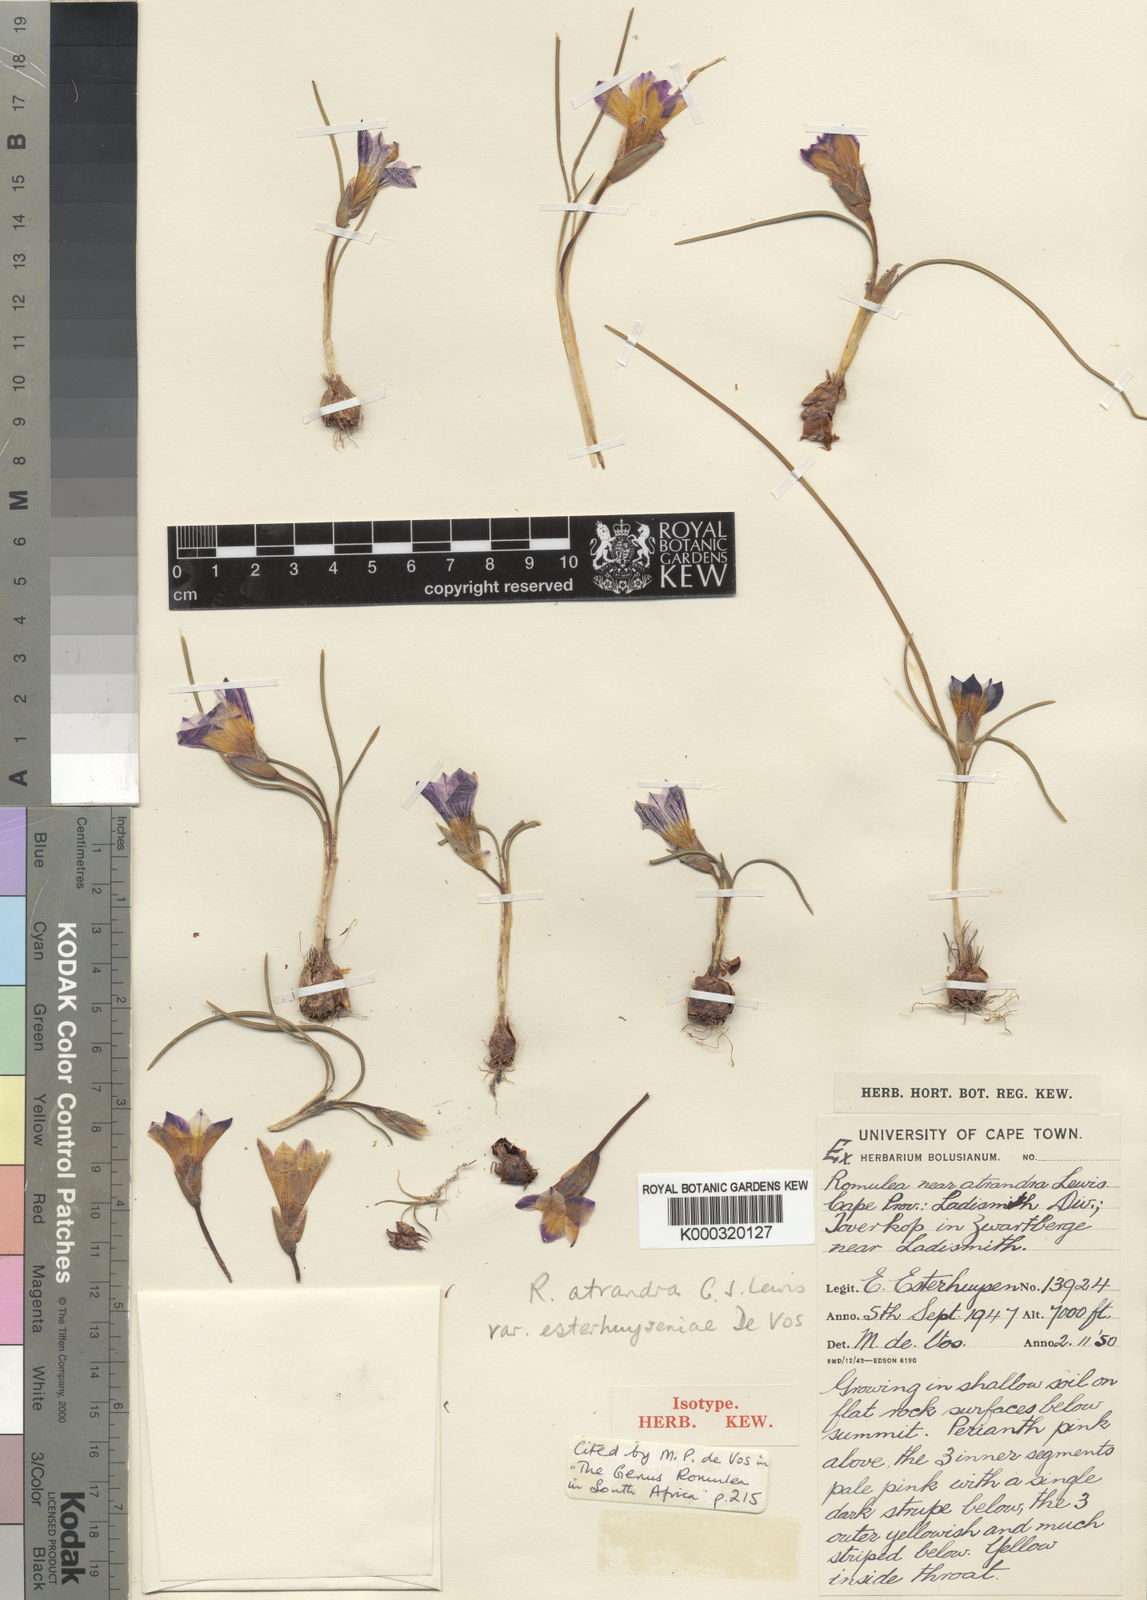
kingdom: Plantae
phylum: Tracheophyta
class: Liliopsida
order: Asparagales
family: Iridaceae
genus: Romulea
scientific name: Romulea atrandra
